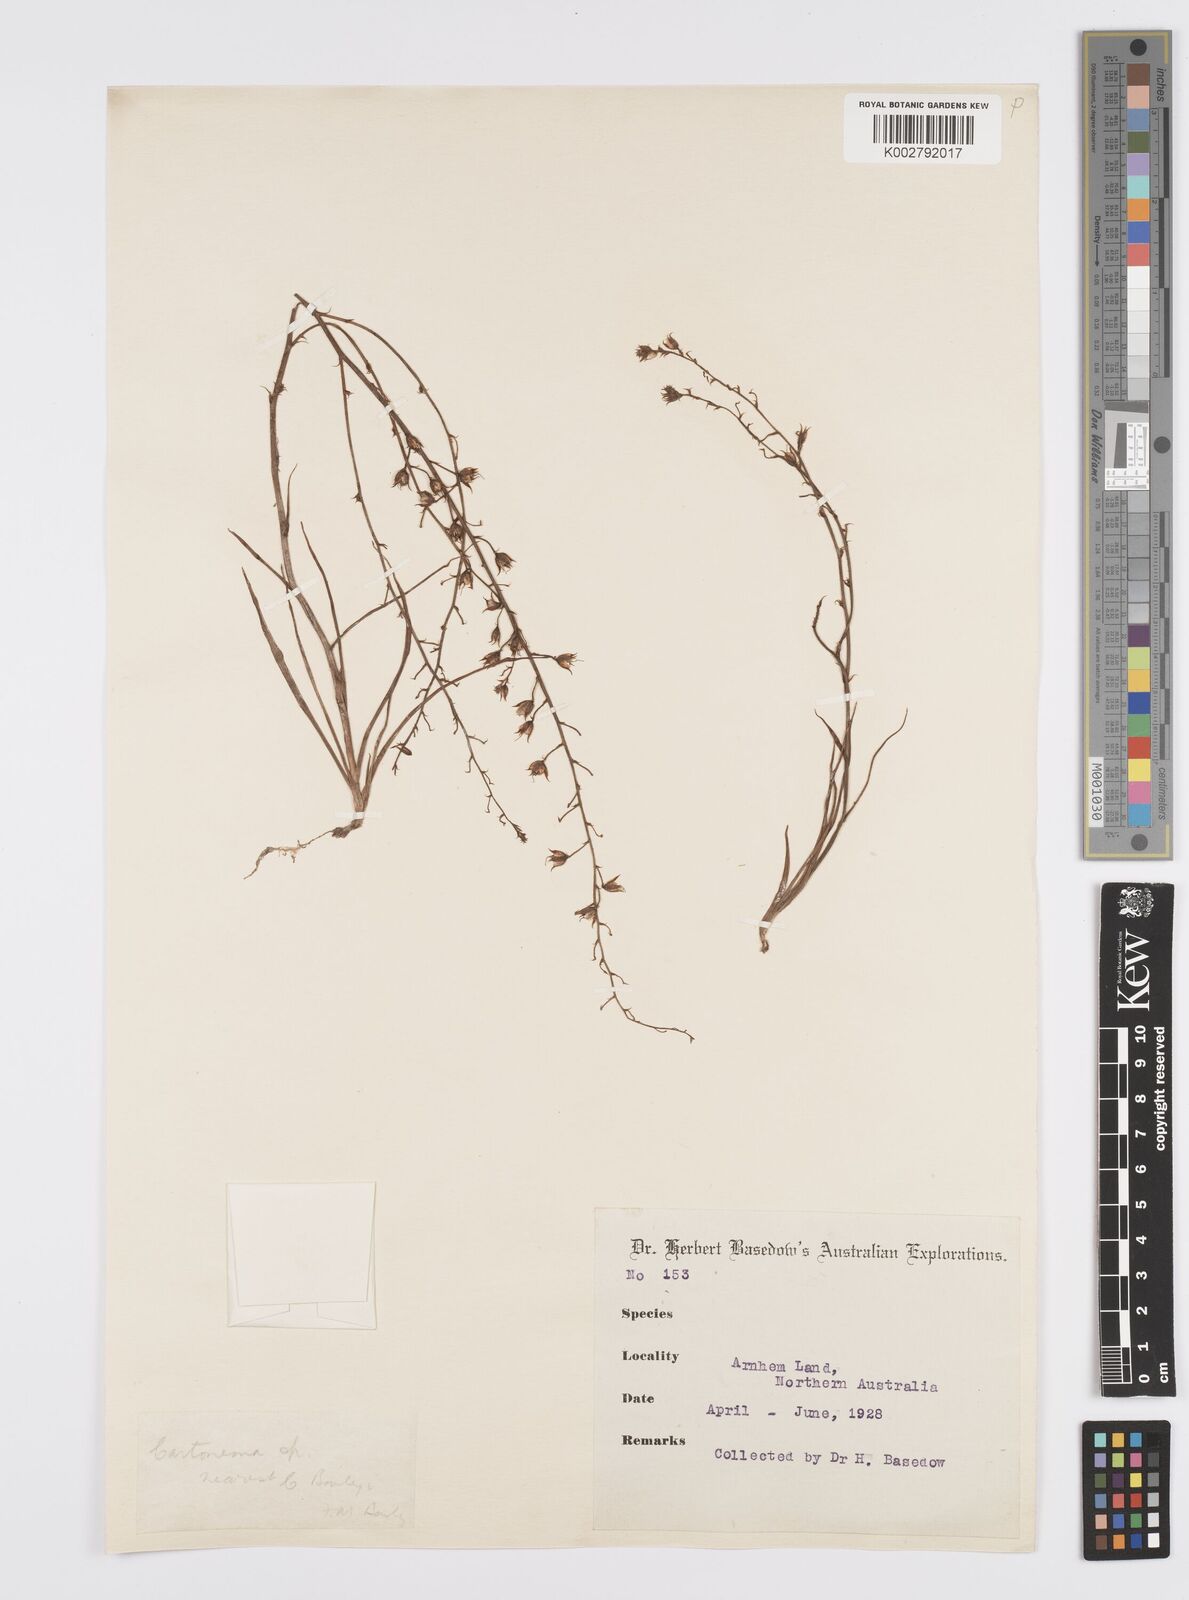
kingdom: Plantae
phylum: Tracheophyta
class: Liliopsida
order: Commelinales
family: Commelinaceae
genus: Cartonema
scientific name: Cartonema
